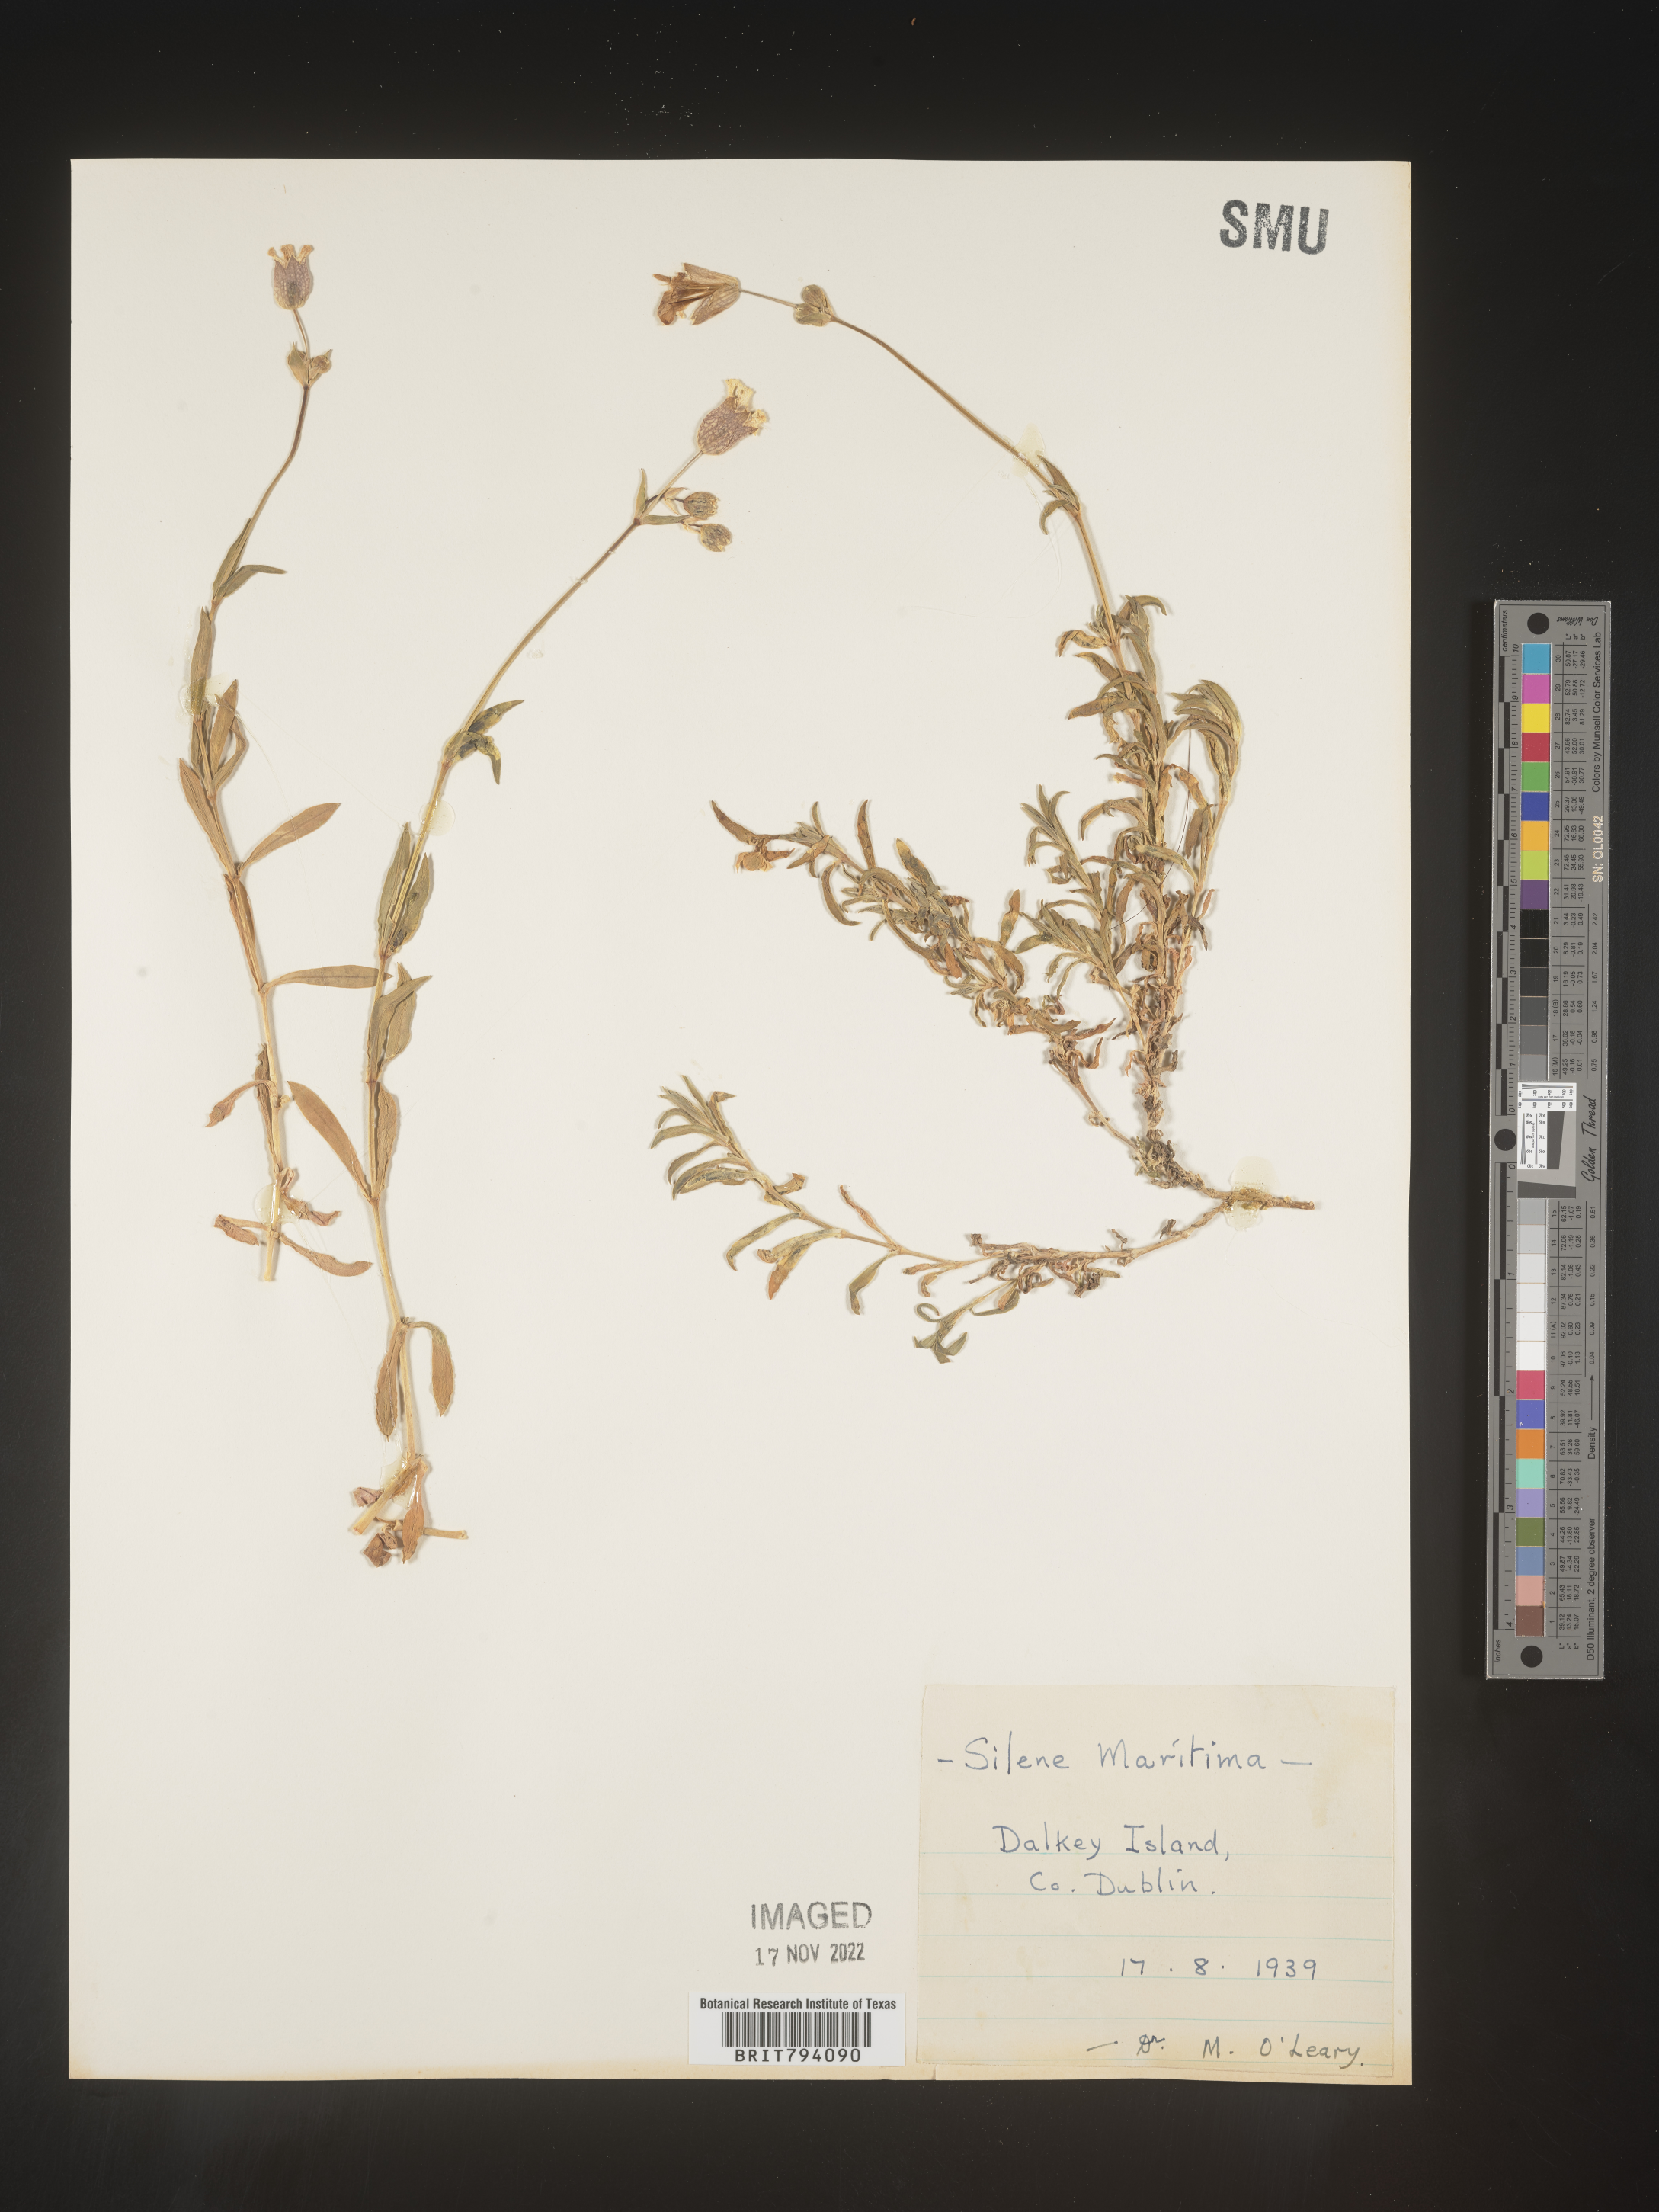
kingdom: Plantae
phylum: Tracheophyta
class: Magnoliopsida
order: Caryophyllales
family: Caryophyllaceae
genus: Silene
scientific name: Silene uniflora
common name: Sea campion
